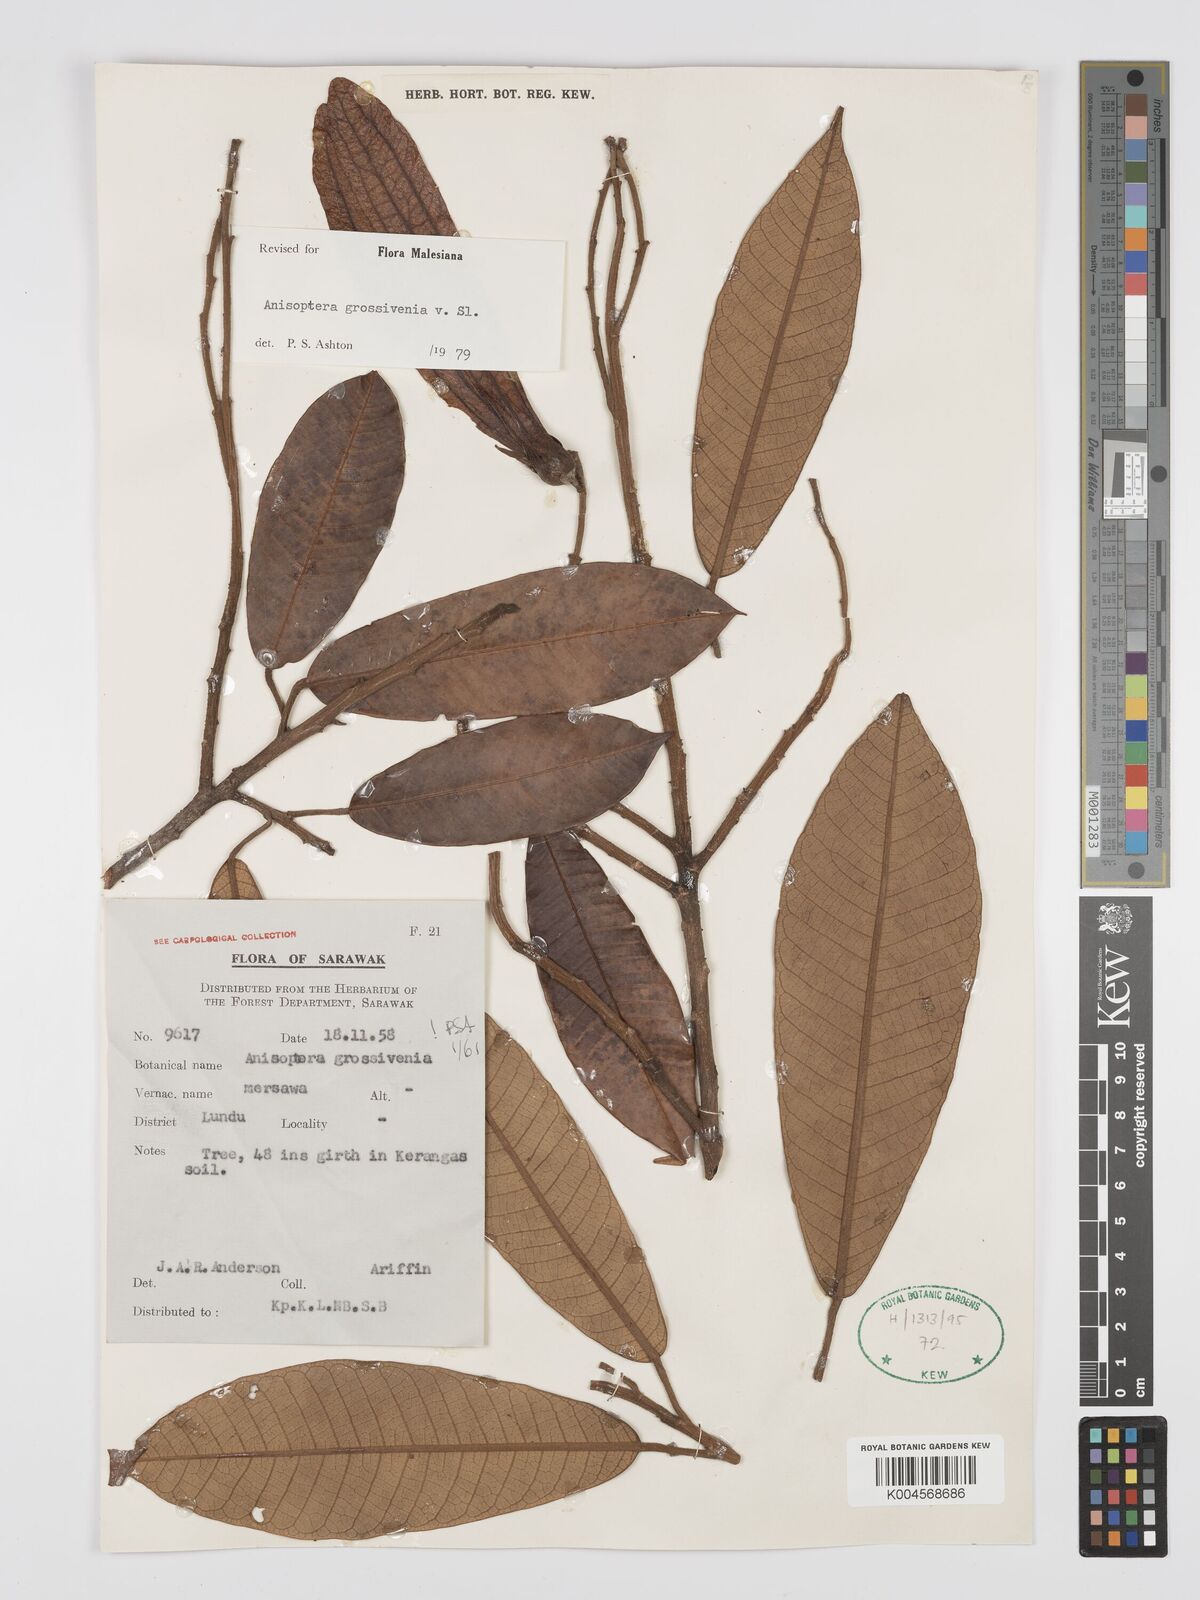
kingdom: Plantae
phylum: Tracheophyta
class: Magnoliopsida
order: Malvales
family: Dipterocarpaceae
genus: Anisoptera
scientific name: Anisoptera grossivenia
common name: Krabak
